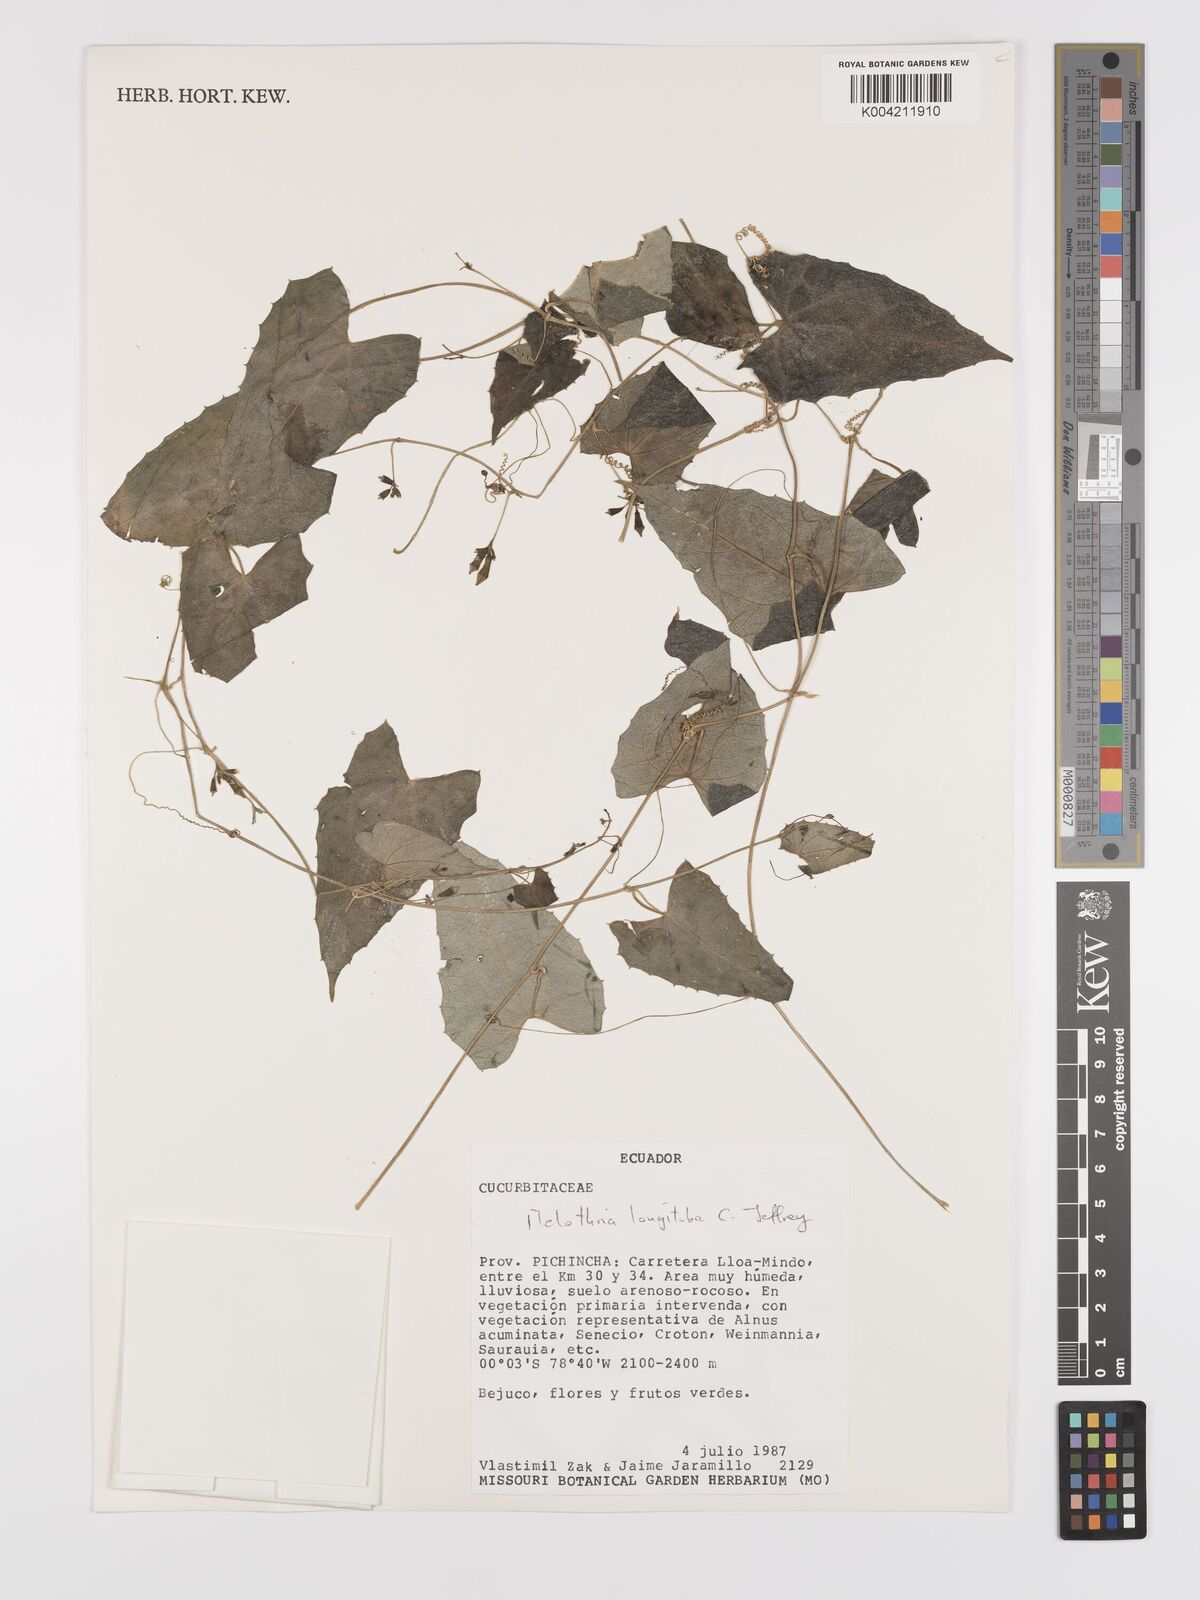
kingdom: Plantae
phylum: Tracheophyta
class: Magnoliopsida
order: Cucurbitales
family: Cucurbitaceae
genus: Melothria
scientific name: Melothria longituba
